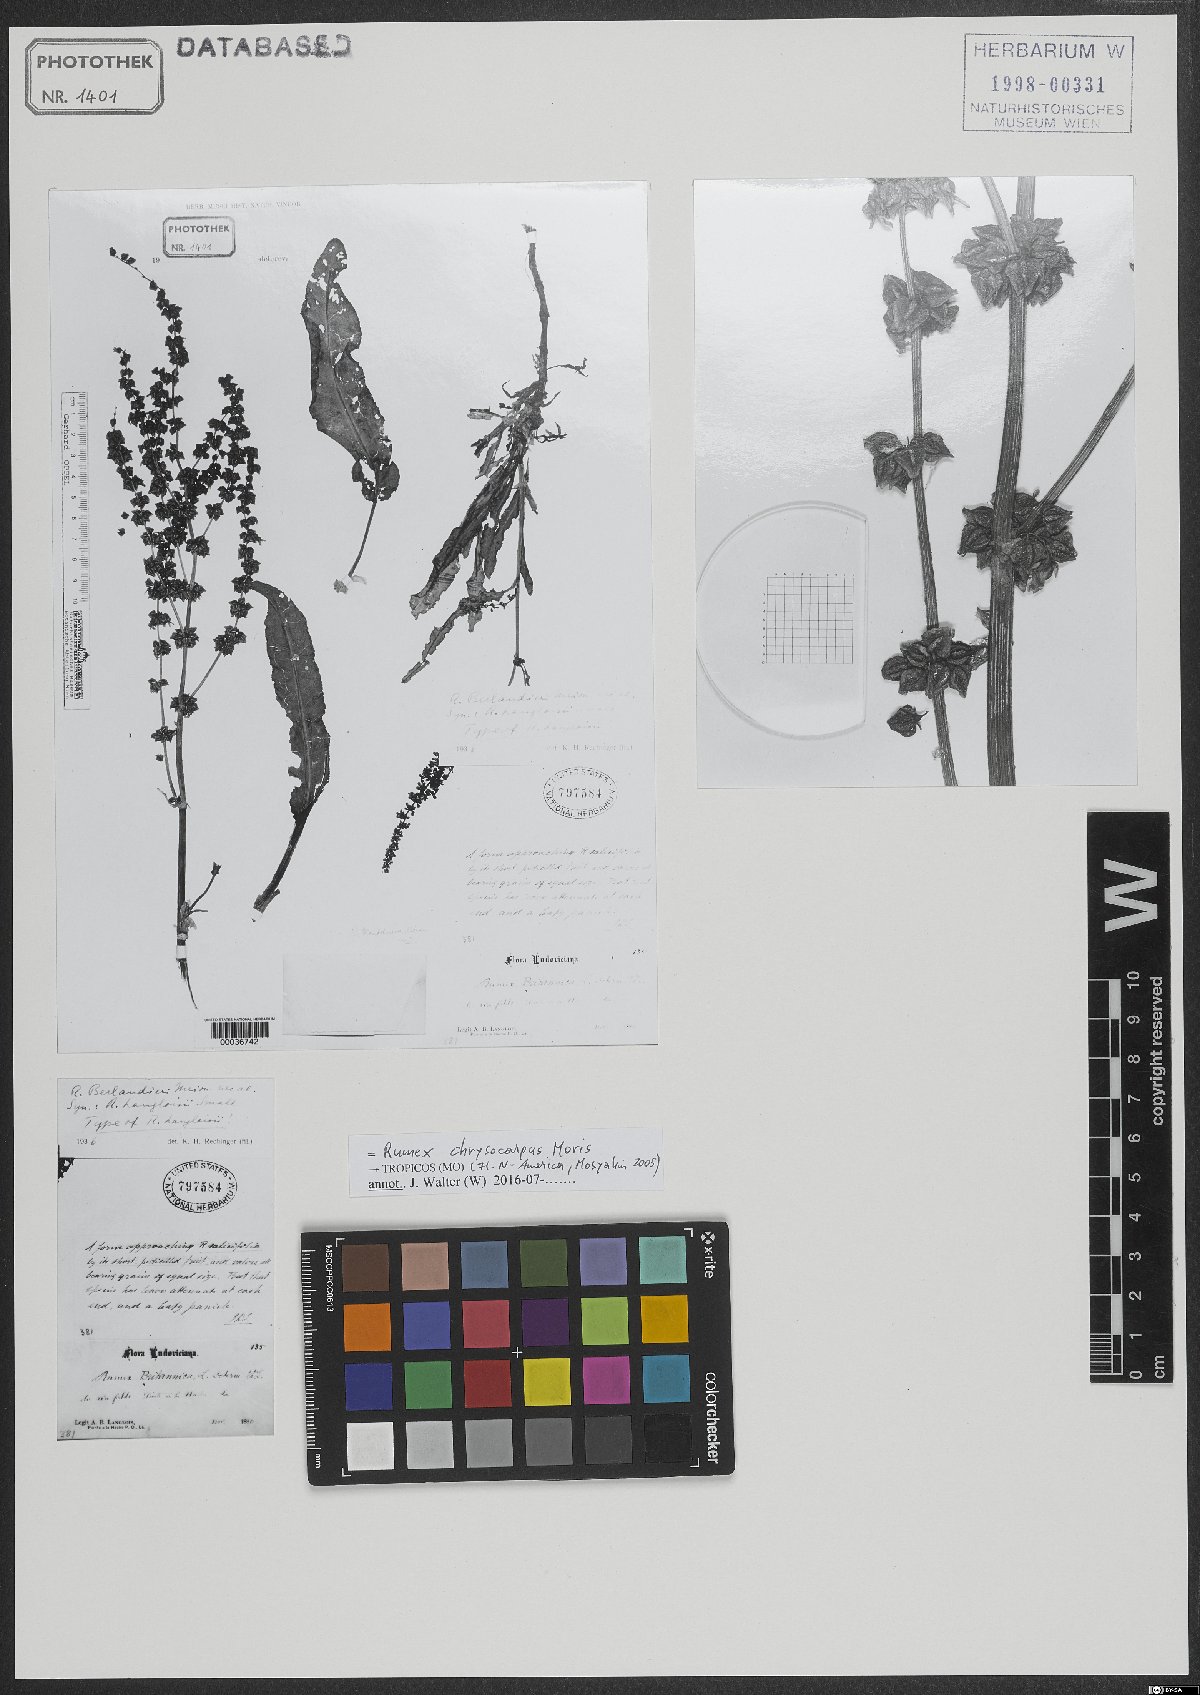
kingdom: Plantae
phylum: Tracheophyta
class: Magnoliopsida
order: Caryophyllales
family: Polygonaceae
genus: Rumex
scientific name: Rumex chrysocarpos
